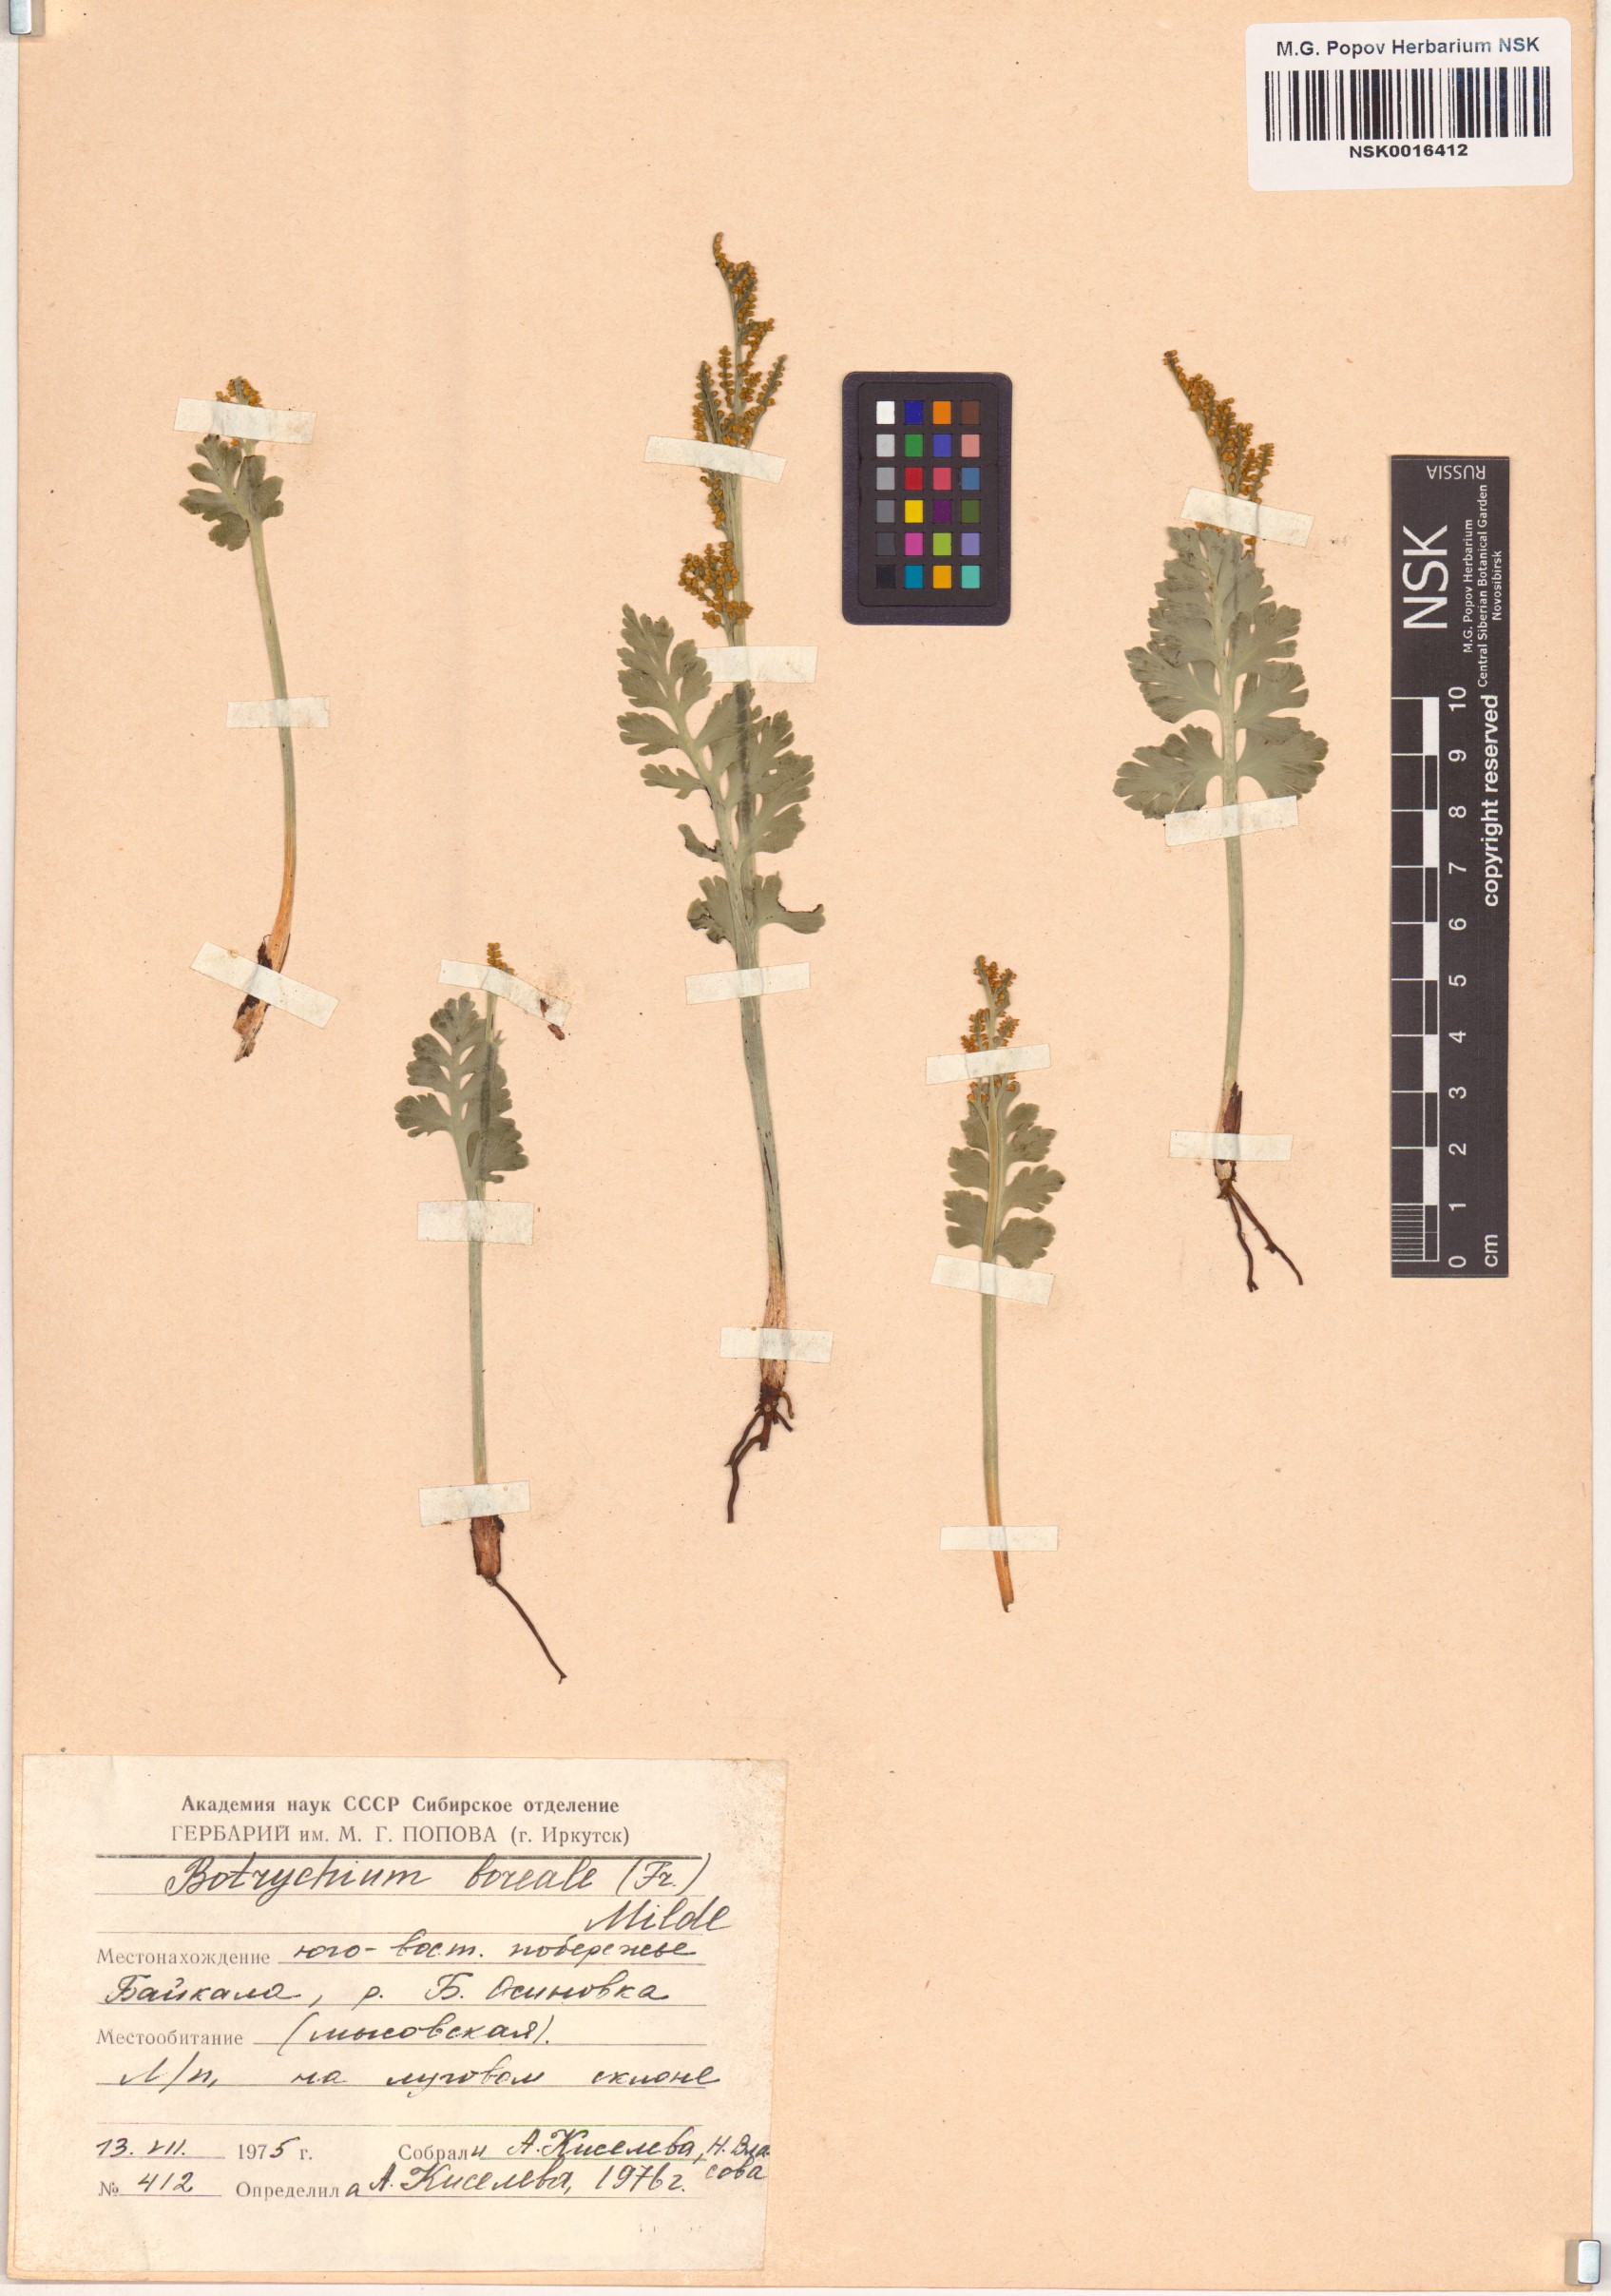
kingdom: Plantae
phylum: Tracheophyta
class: Polypodiopsida
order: Ophioglossales
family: Ophioglossaceae
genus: Botrychium
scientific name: Botrychium boreale
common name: Boreal moonwort
